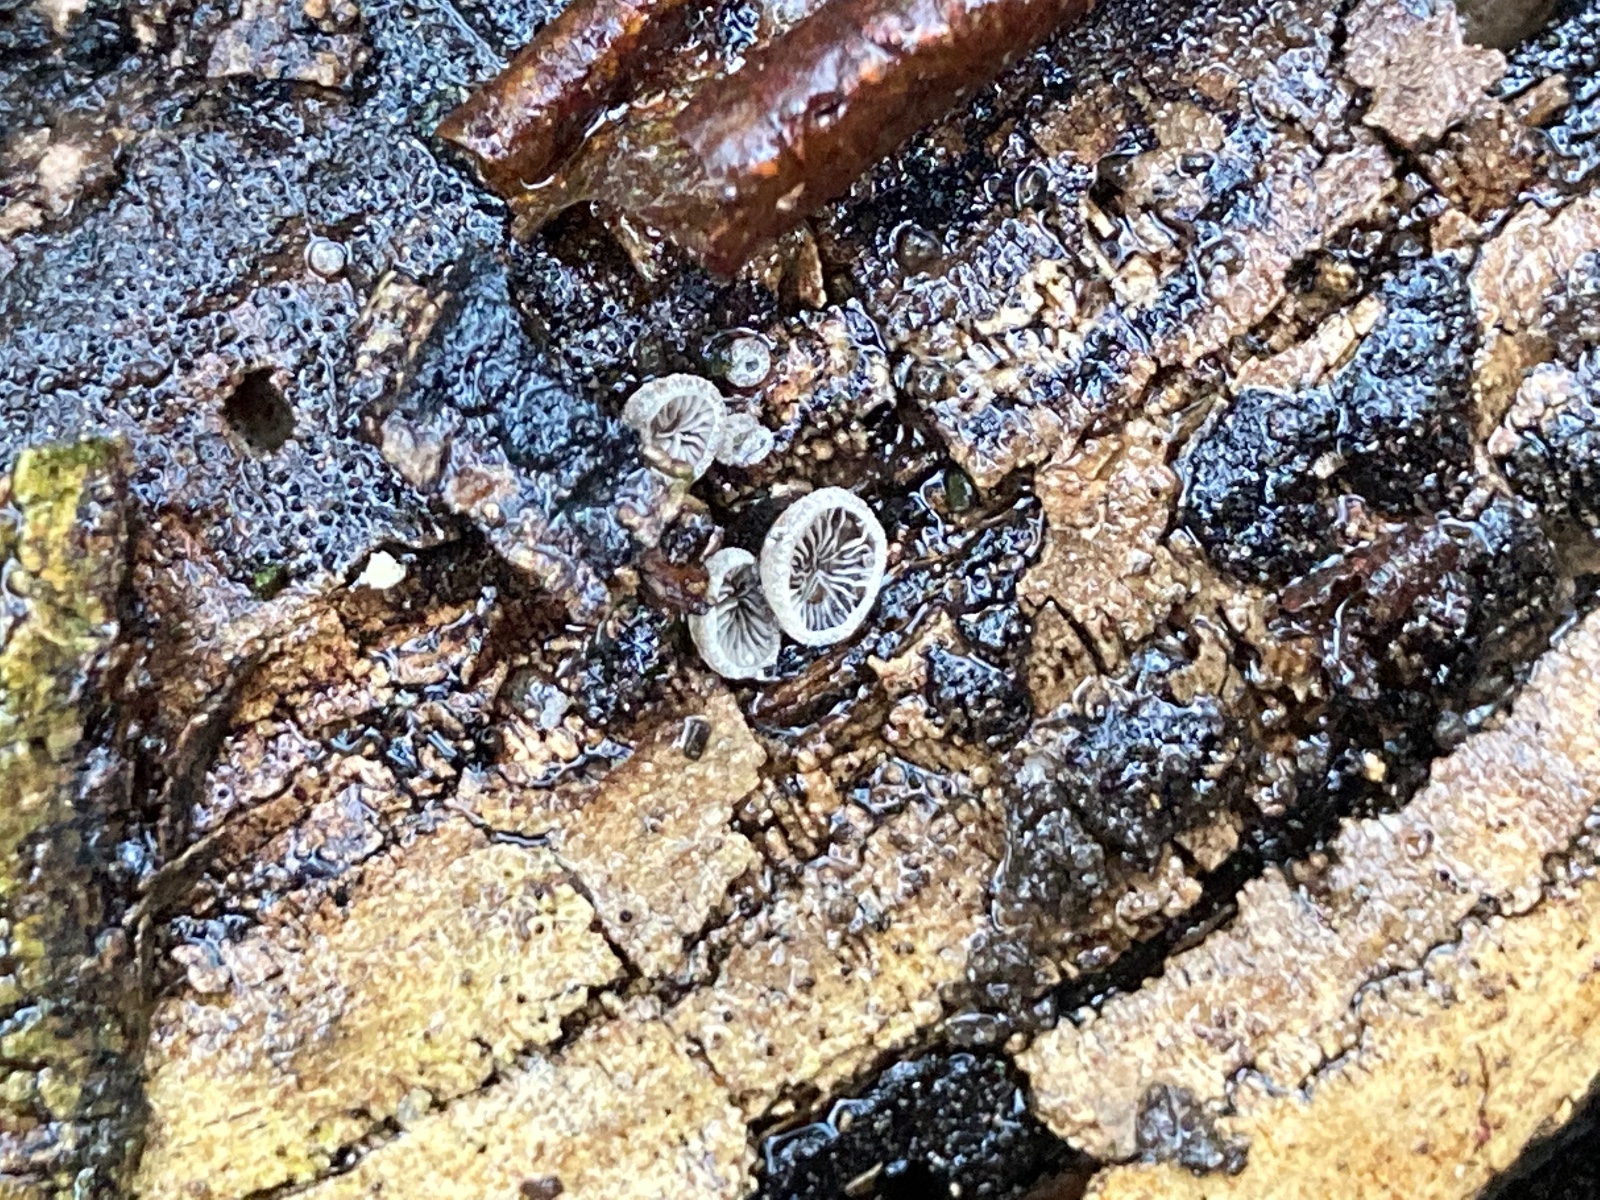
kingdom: Fungi
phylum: Basidiomycota
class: Agaricomycetes
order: Agaricales
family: Pleurotaceae
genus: Resupinatus
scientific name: Resupinatus trichotis
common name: mørkfiltet barkhat
